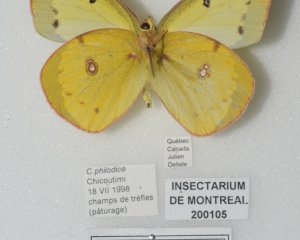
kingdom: Animalia
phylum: Arthropoda
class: Insecta
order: Lepidoptera
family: Pieridae
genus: Colias
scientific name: Colias philodice
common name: Clouded Sulphur
